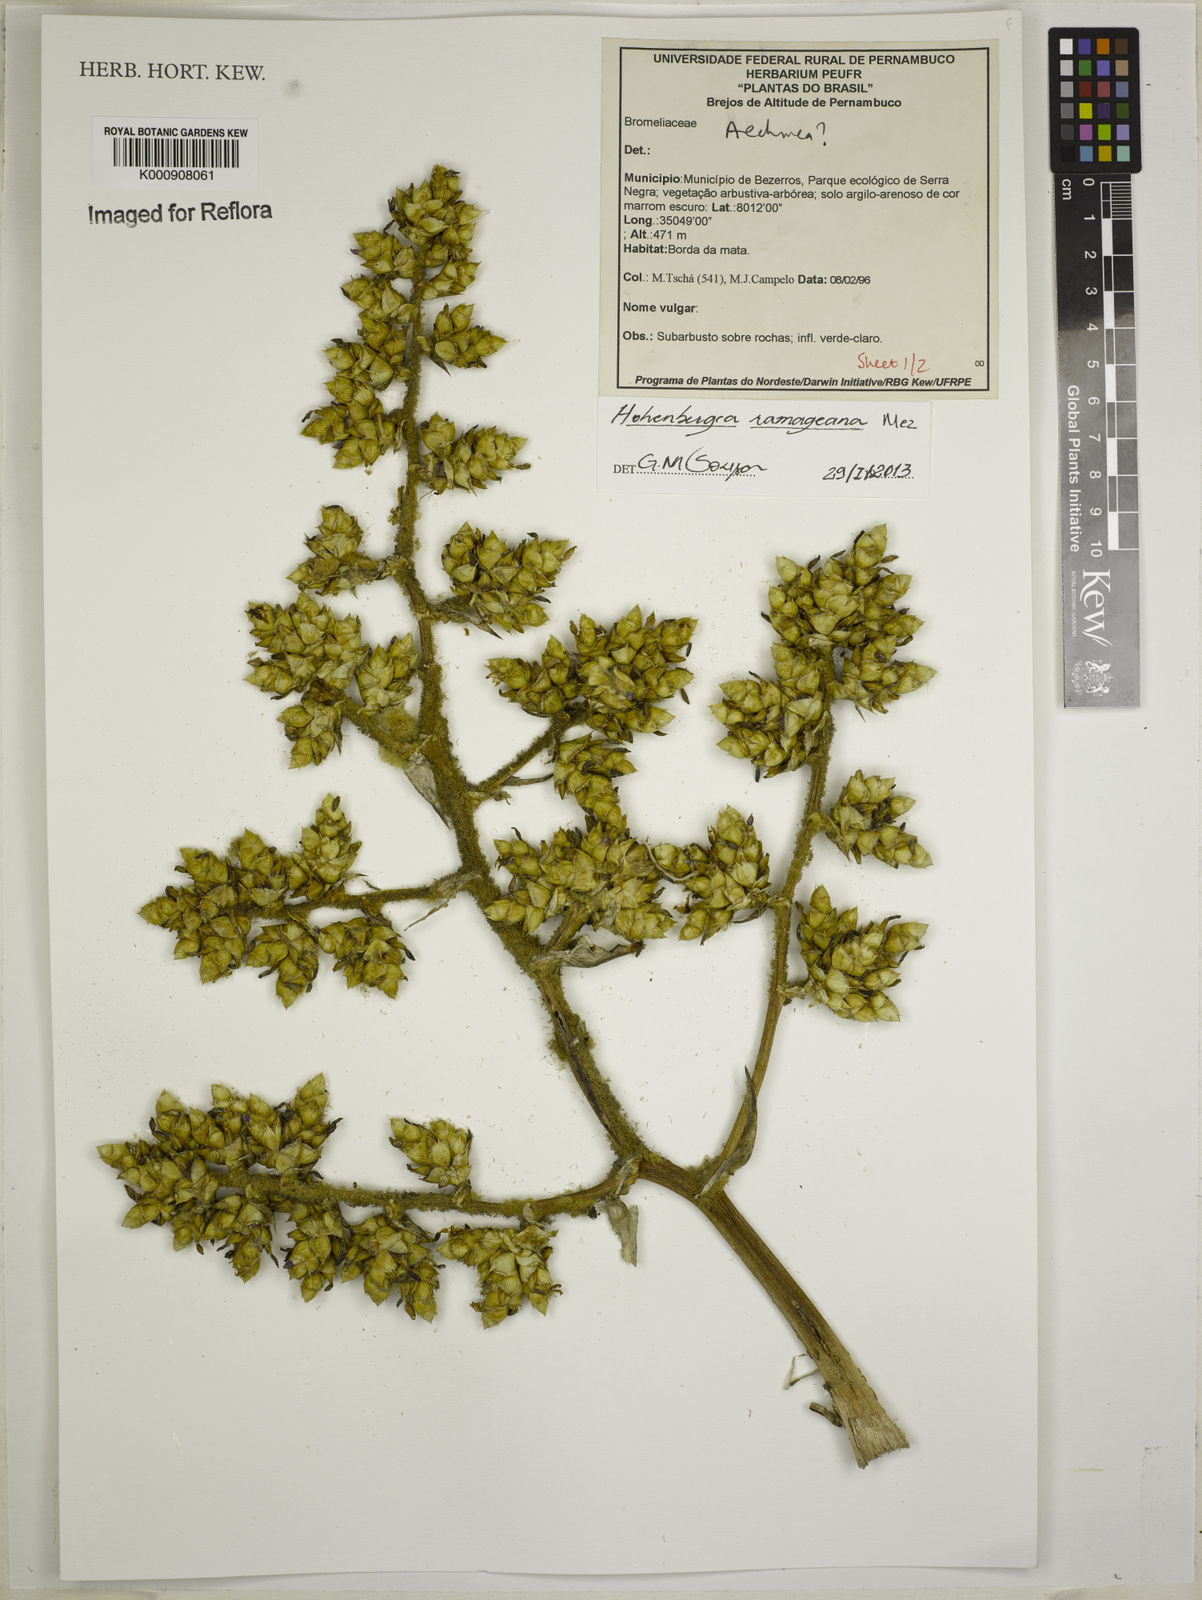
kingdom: Plantae
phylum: Tracheophyta
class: Liliopsida
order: Poales
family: Bromeliaceae
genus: Aechmea
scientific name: Aechmea nudicaulis
